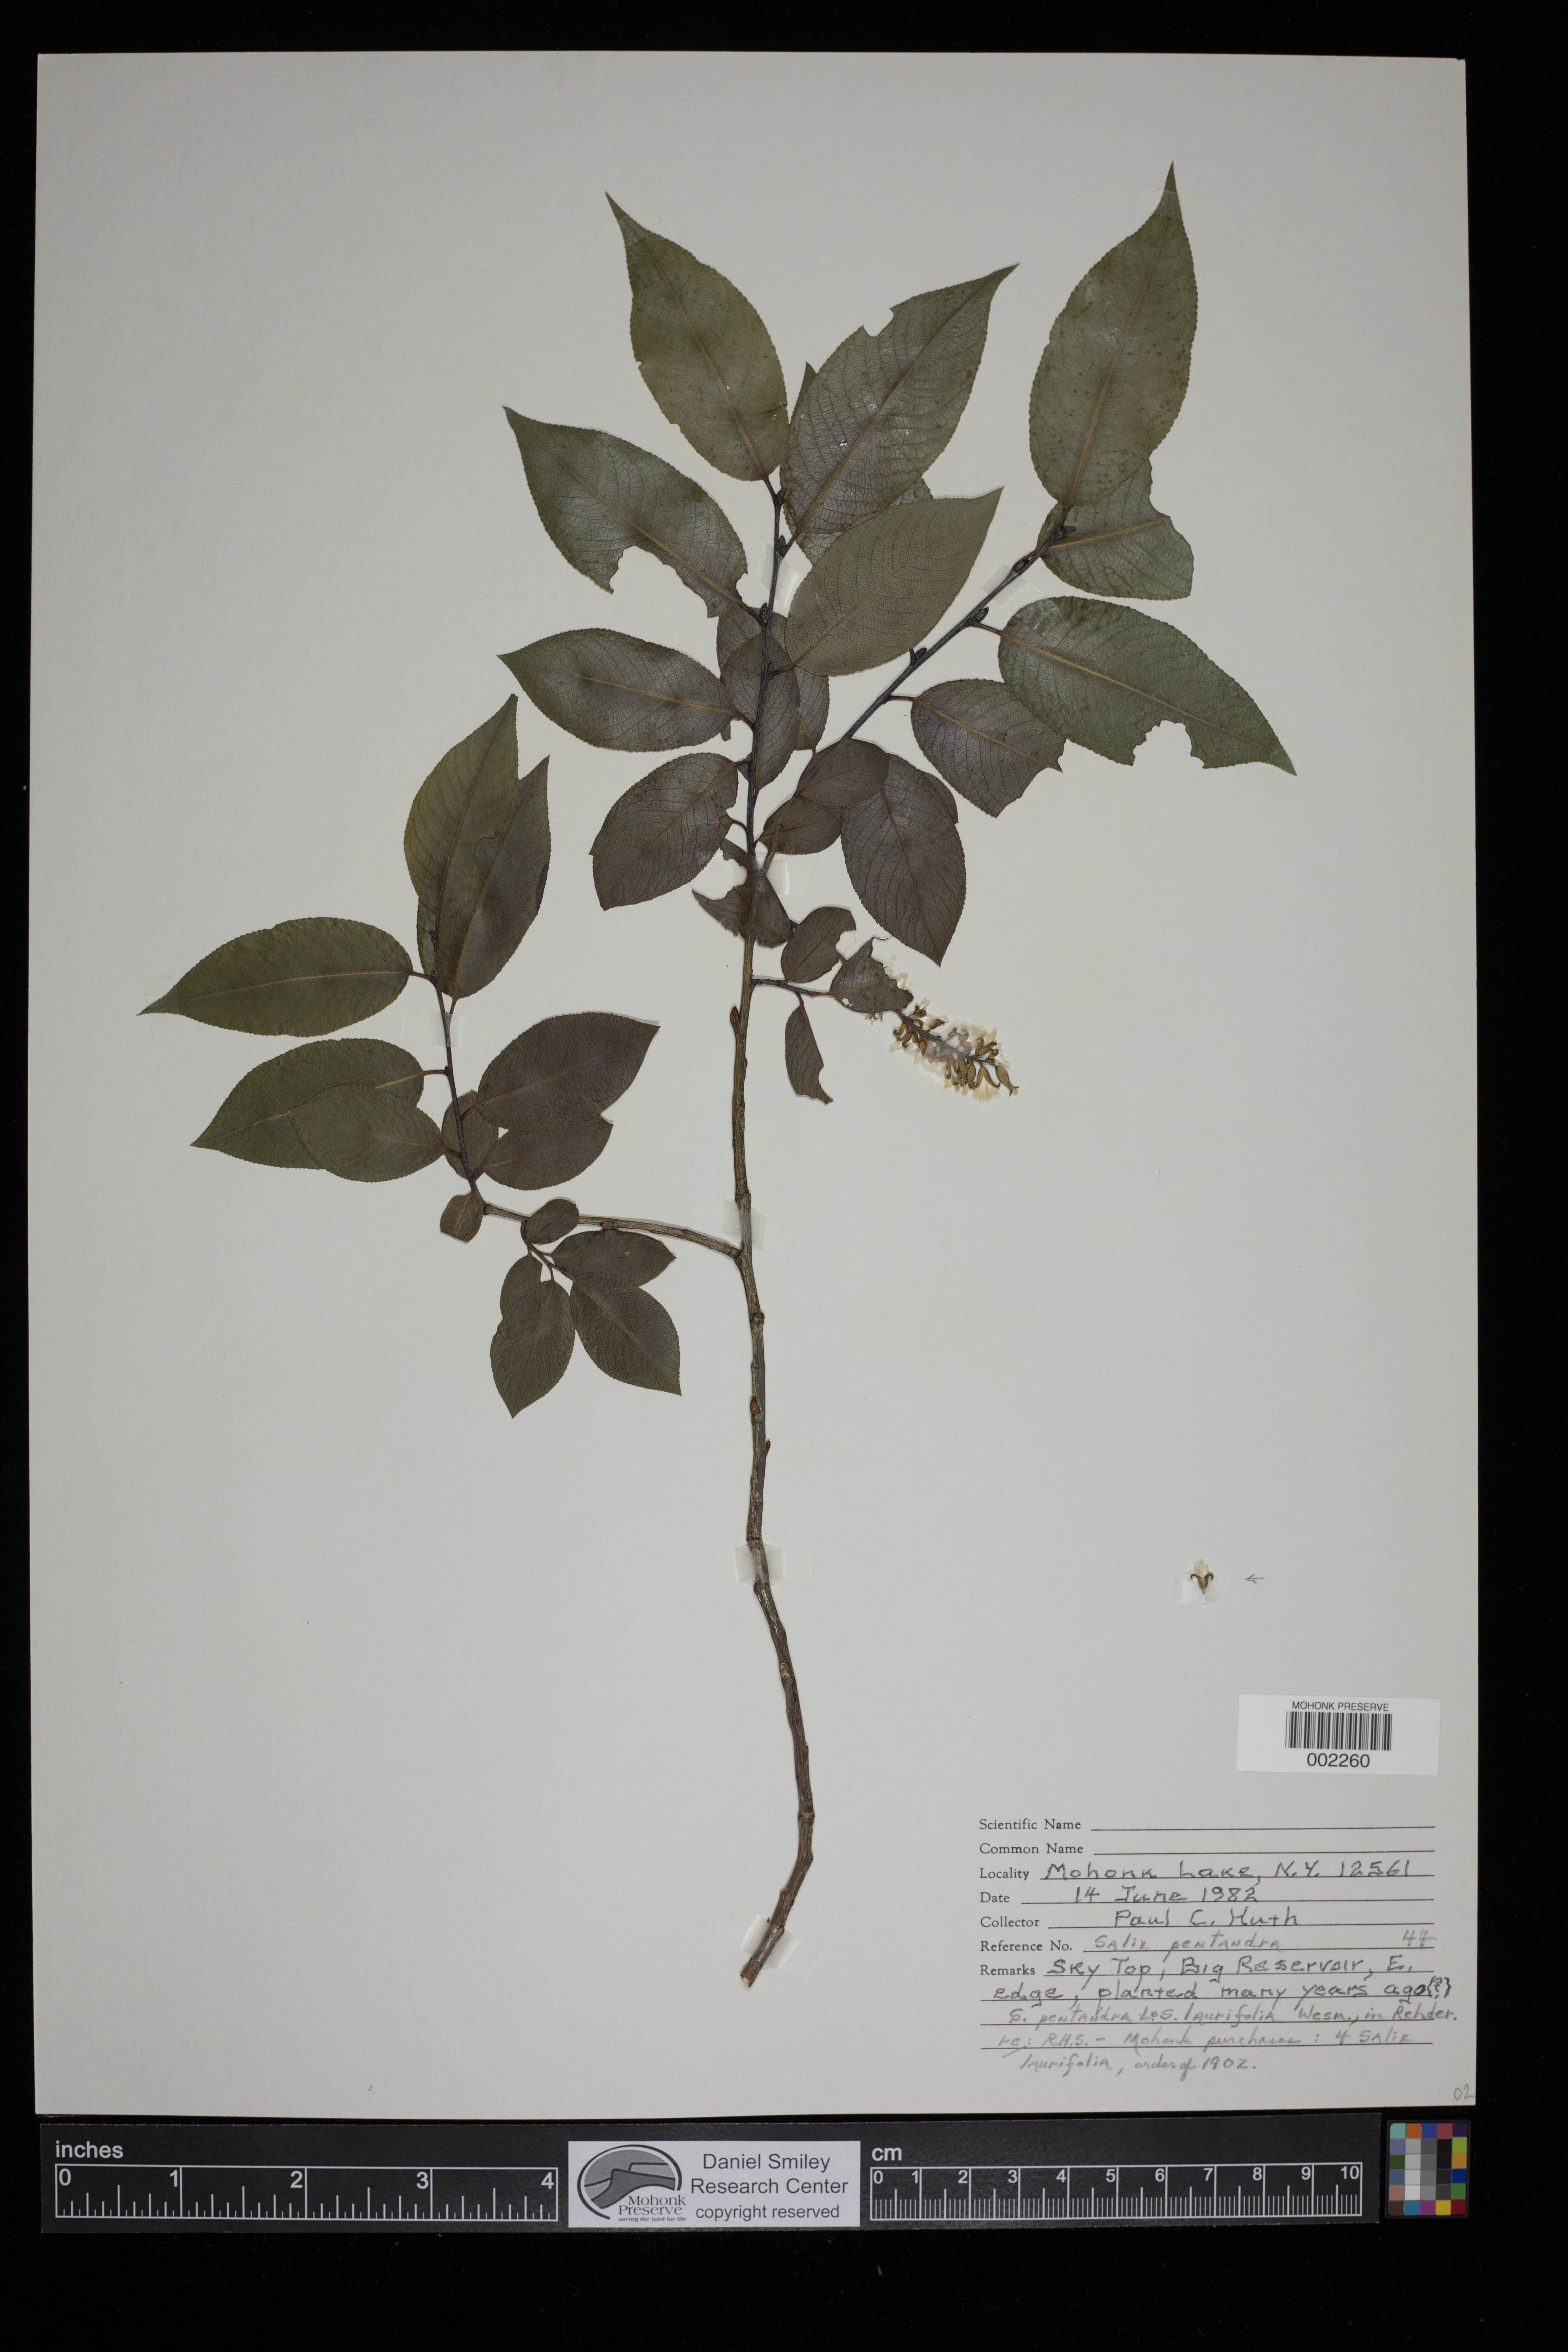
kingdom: Plantae
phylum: Tracheophyta
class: Magnoliopsida
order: Malpighiales
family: Salicaceae
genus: Salix
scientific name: Salix pentandra
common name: Bay willow
